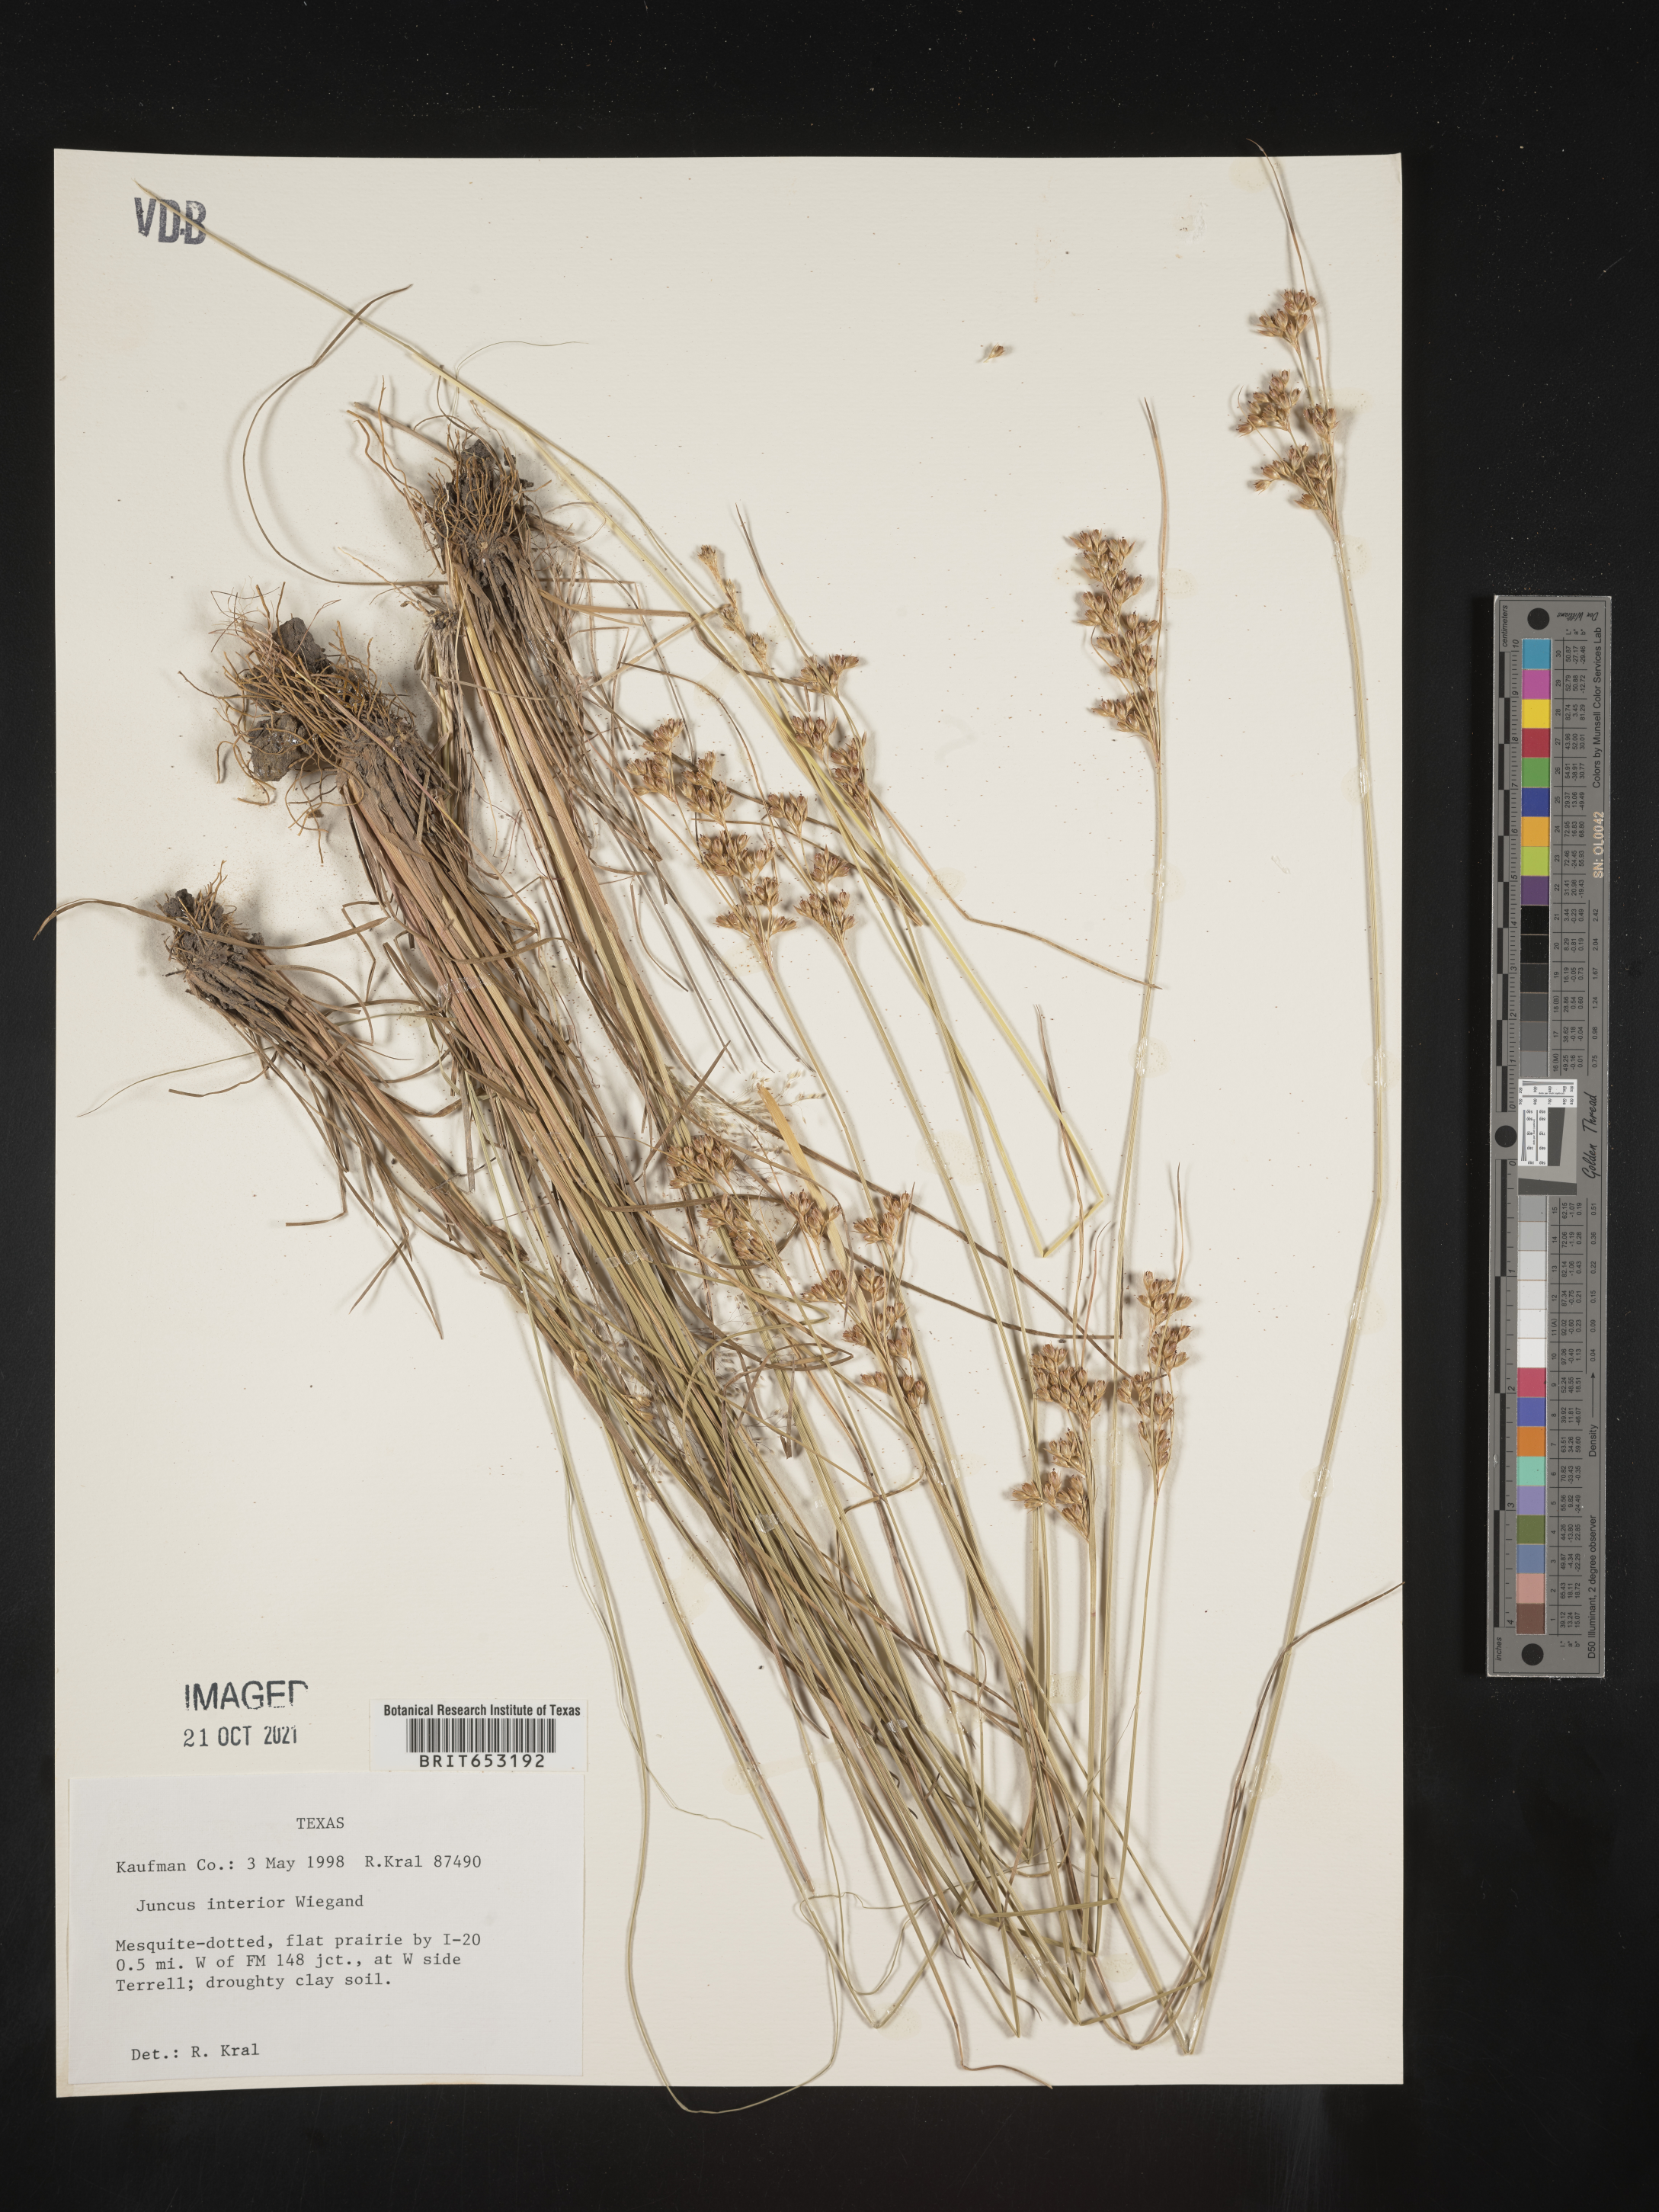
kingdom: Plantae
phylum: Tracheophyta
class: Liliopsida
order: Poales
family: Juncaceae
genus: Juncus
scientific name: Juncus interior
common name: Interior rush
